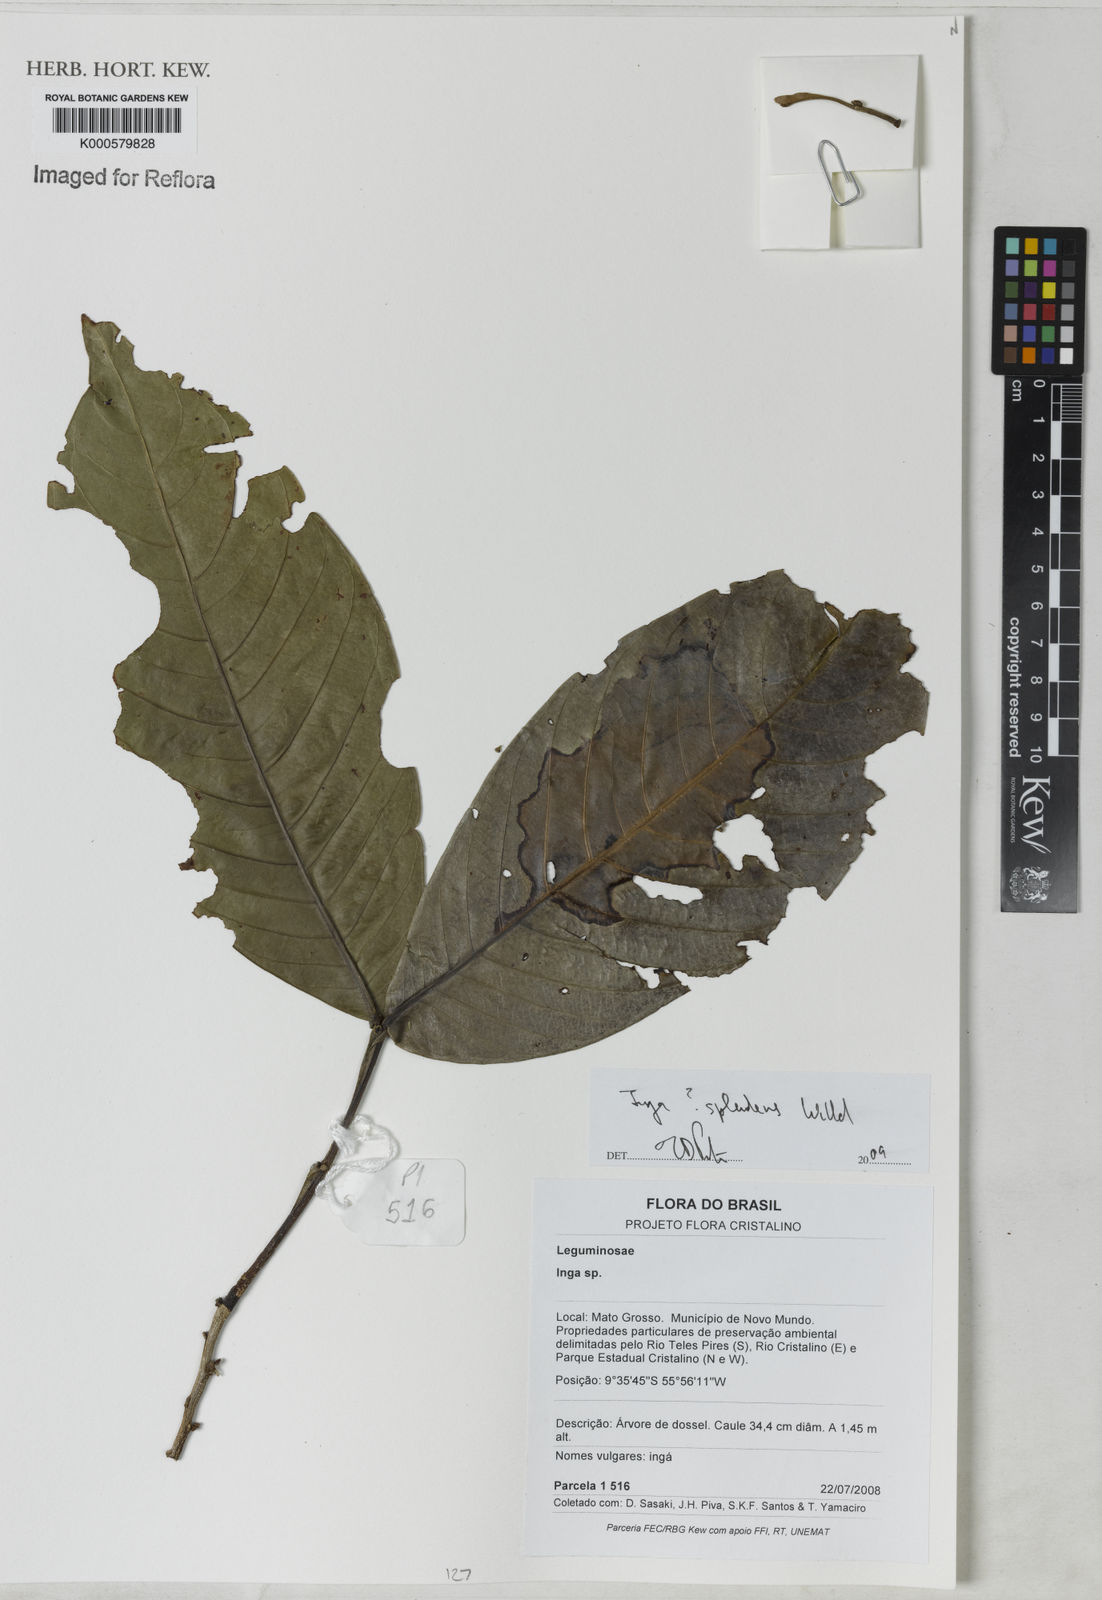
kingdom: Plantae
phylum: Tracheophyta
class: Magnoliopsida
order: Fabales
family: Fabaceae
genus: Inga
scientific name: Inga splendens
